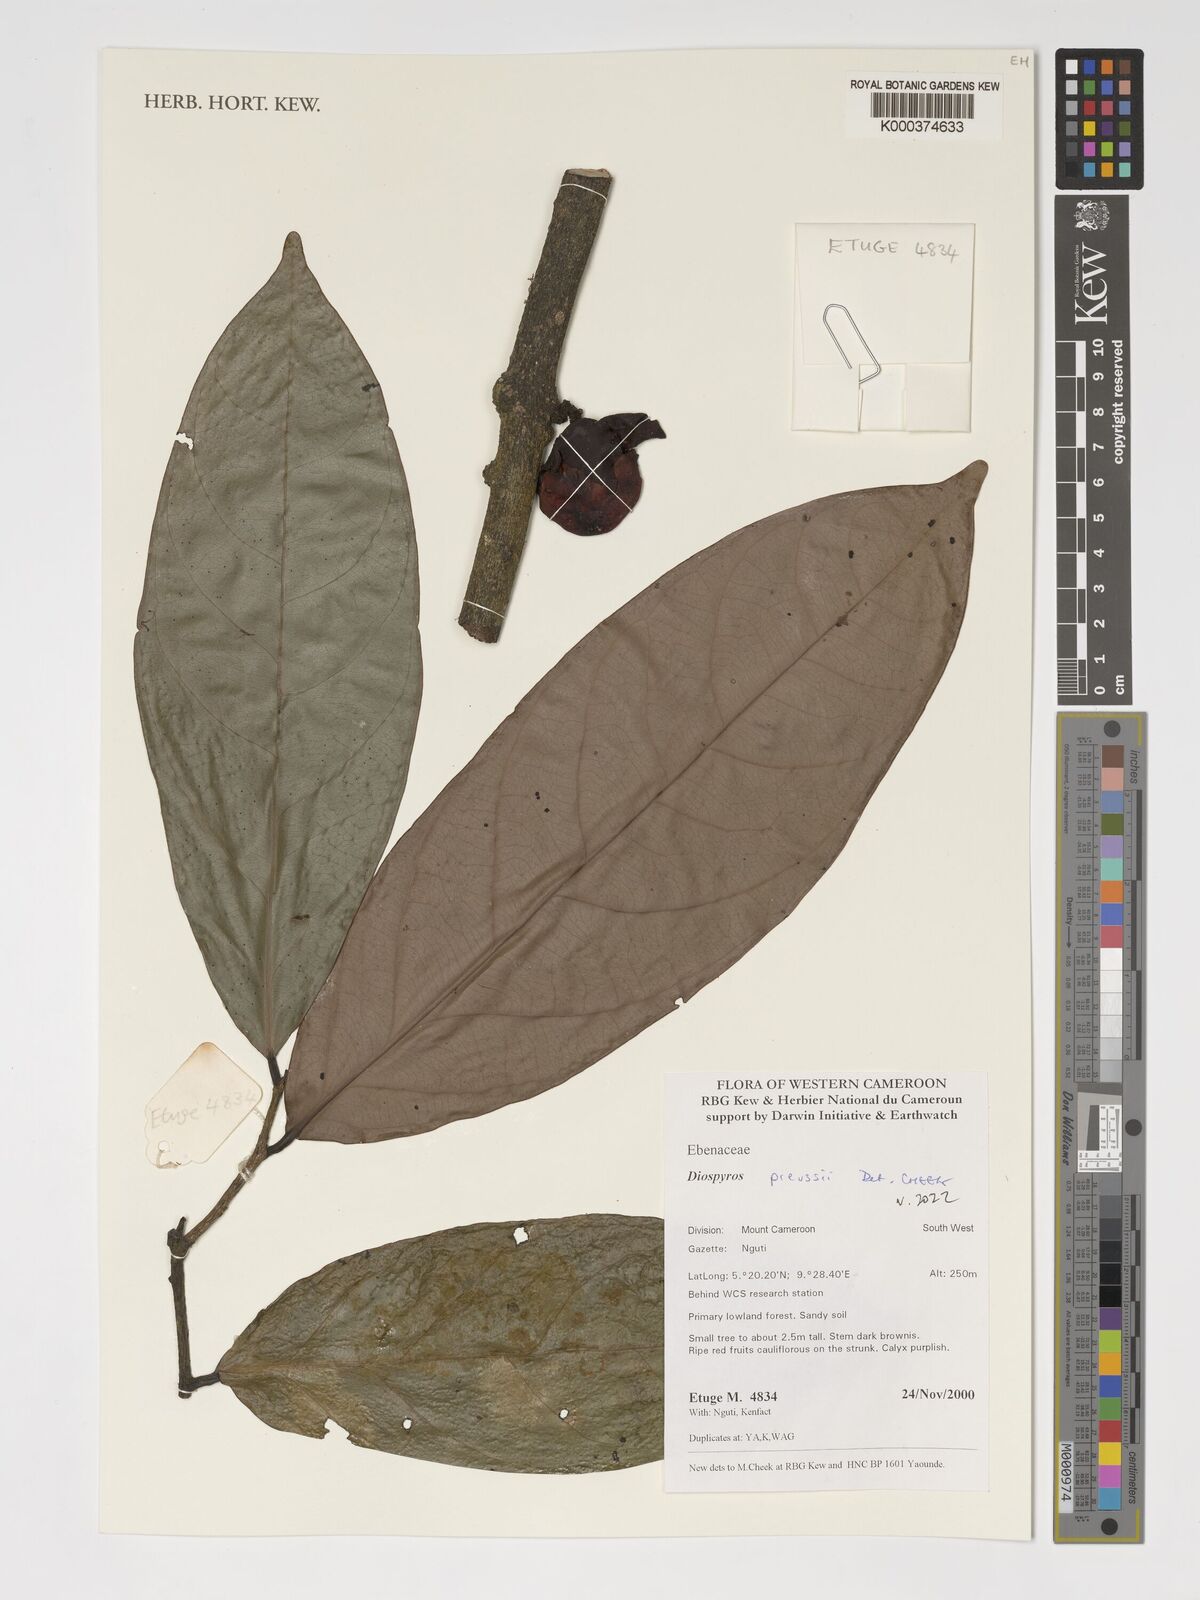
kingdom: Plantae
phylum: Tracheophyta
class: Magnoliopsida
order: Ericales
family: Ebenaceae
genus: Diospyros
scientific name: Diospyros preussii
